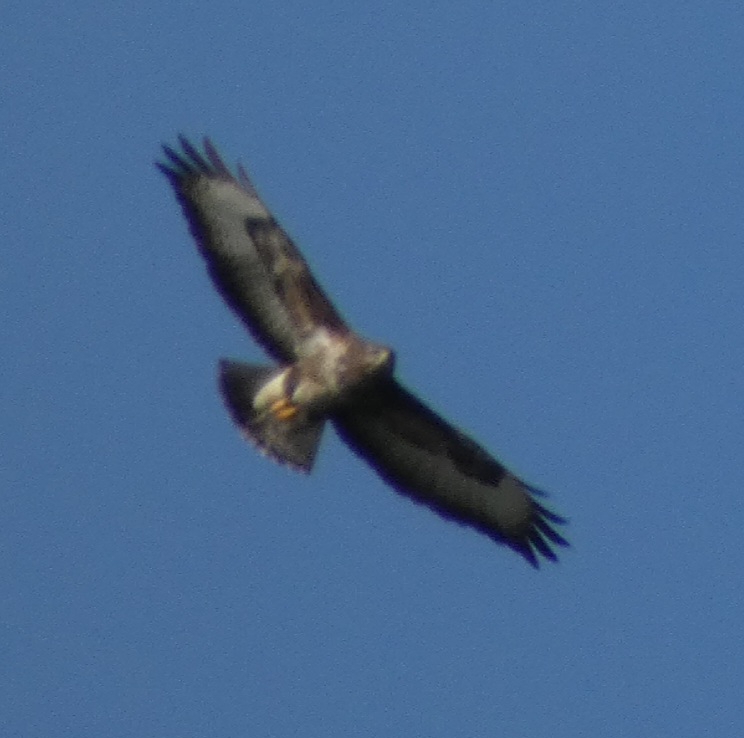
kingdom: Animalia
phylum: Chordata
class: Aves
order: Accipitriformes
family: Accipitridae
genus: Buteo
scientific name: Buteo buteo
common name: Musvåge
